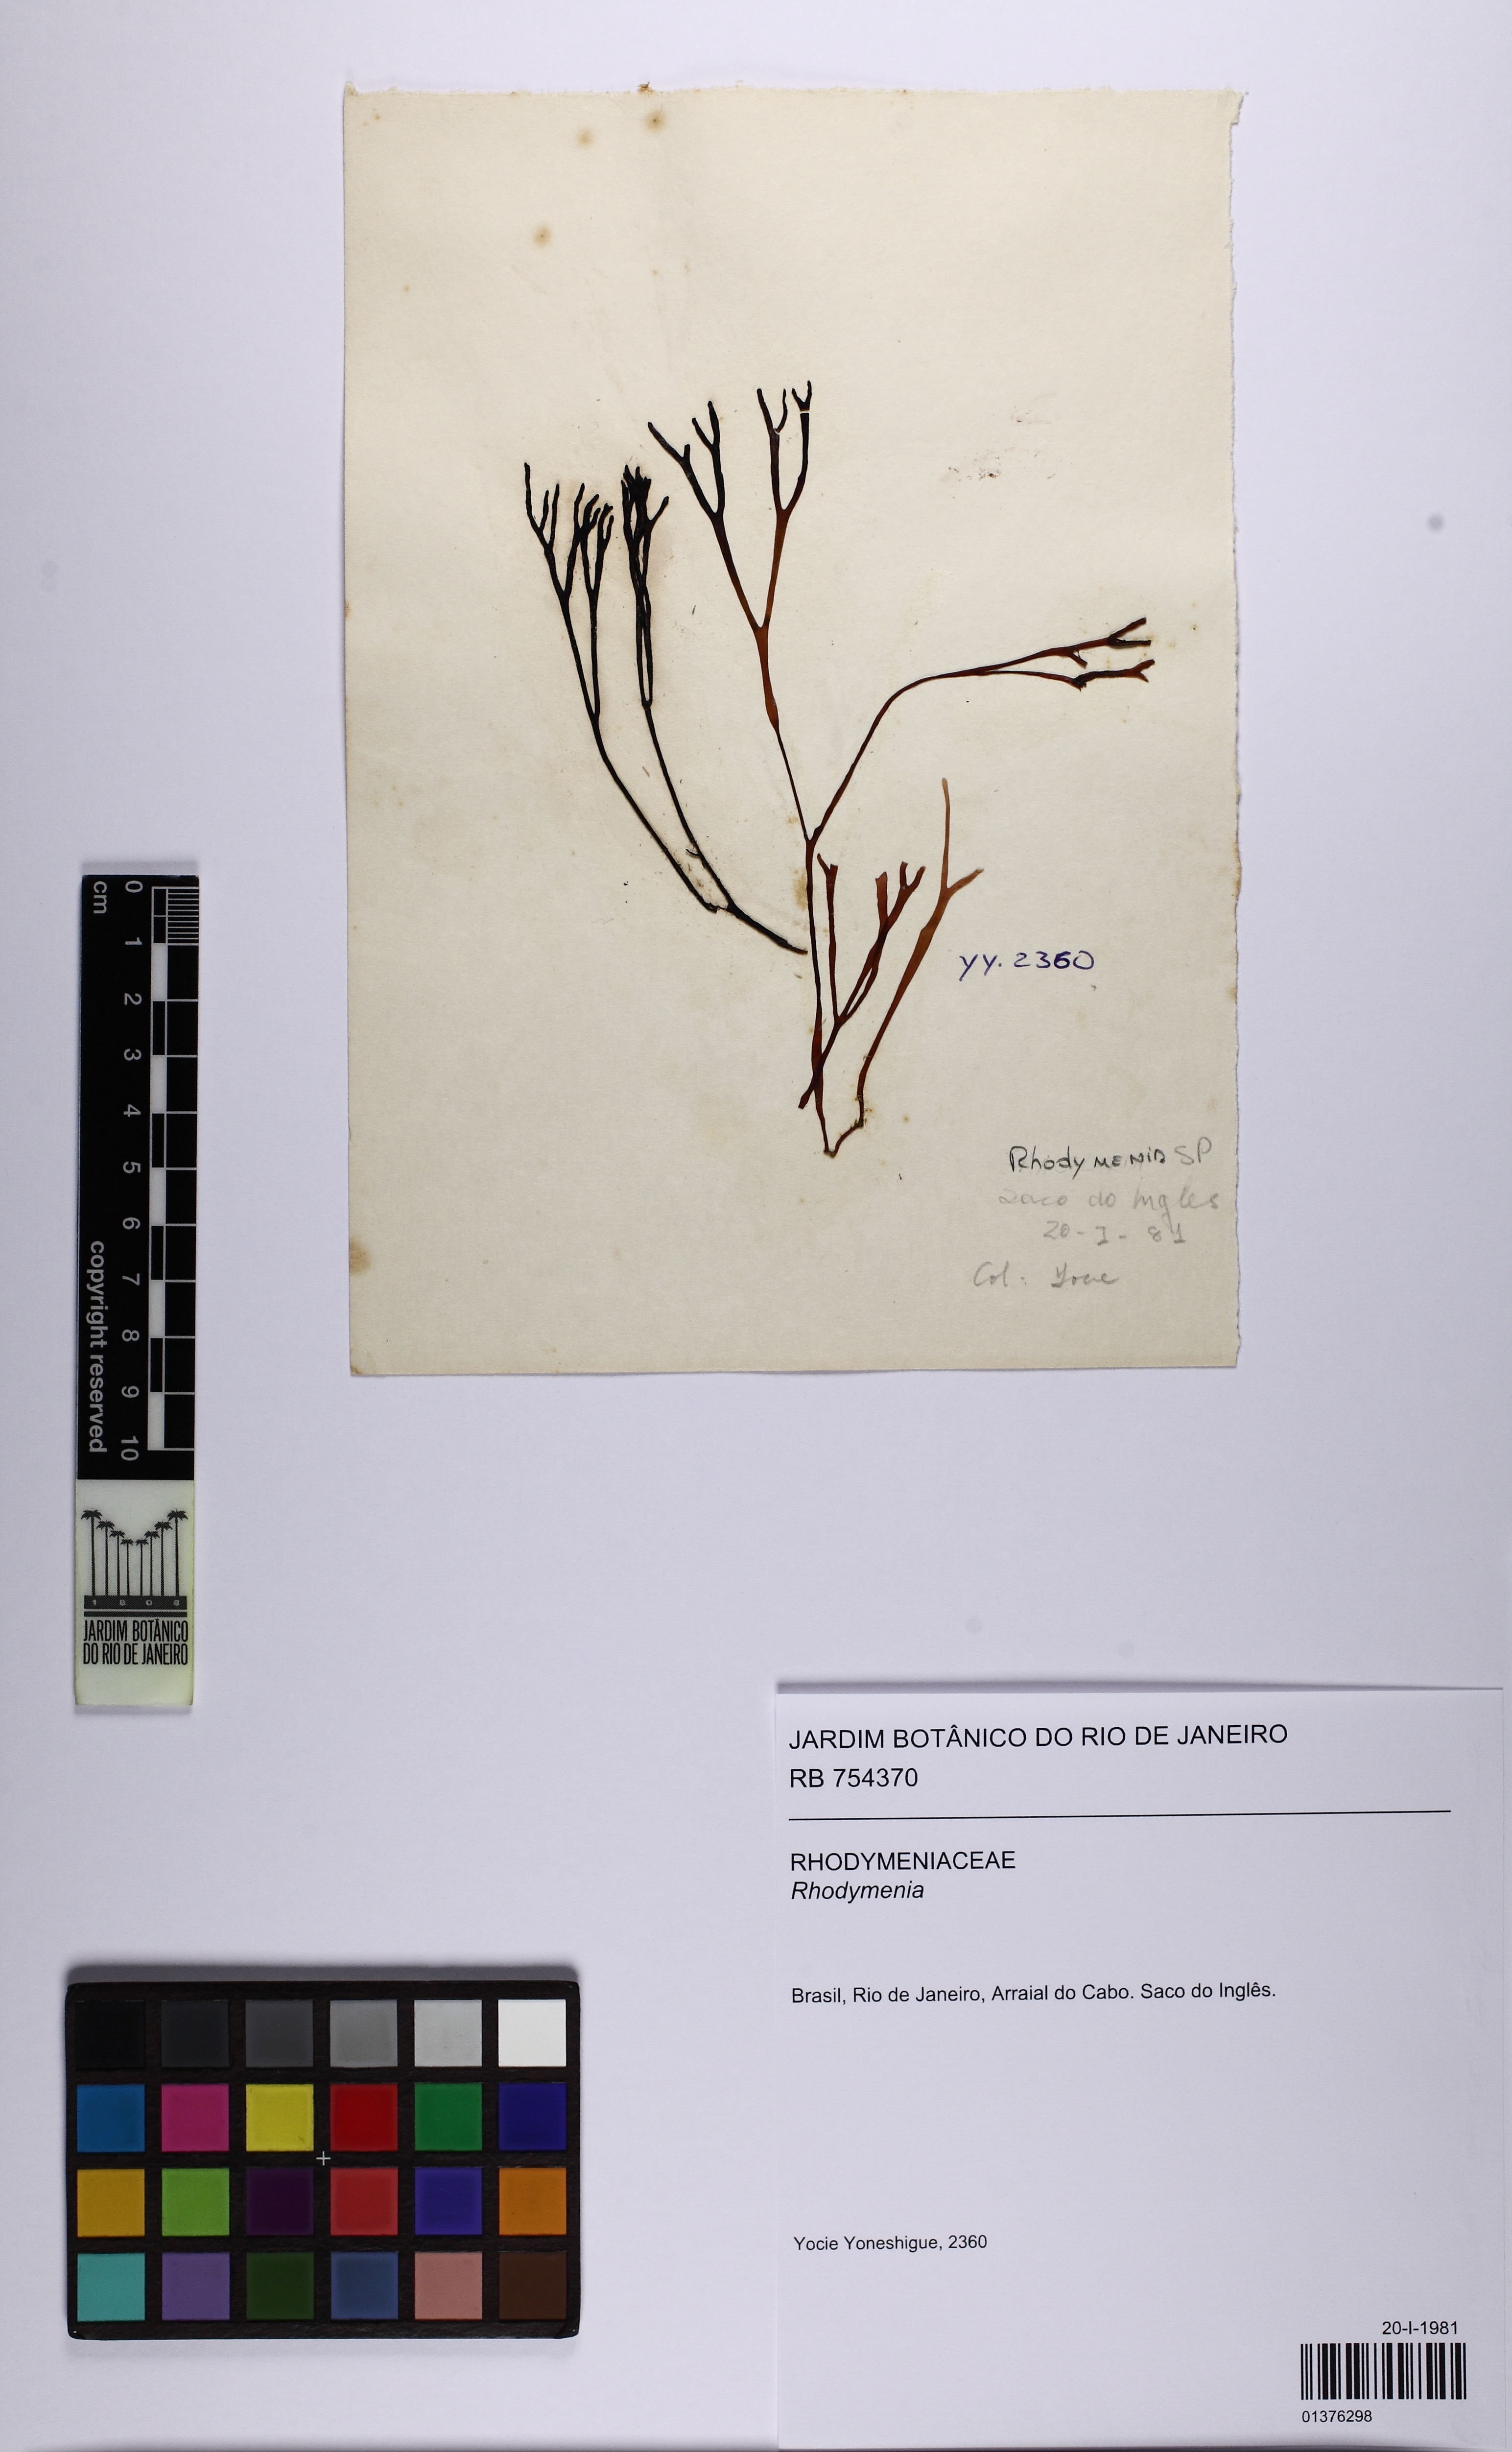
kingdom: Plantae
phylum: Rhodophyta
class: Florideophyceae
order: Rhodymeniales
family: Rhodymeniaceae
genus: Rhodymenia
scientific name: Rhodymenia
